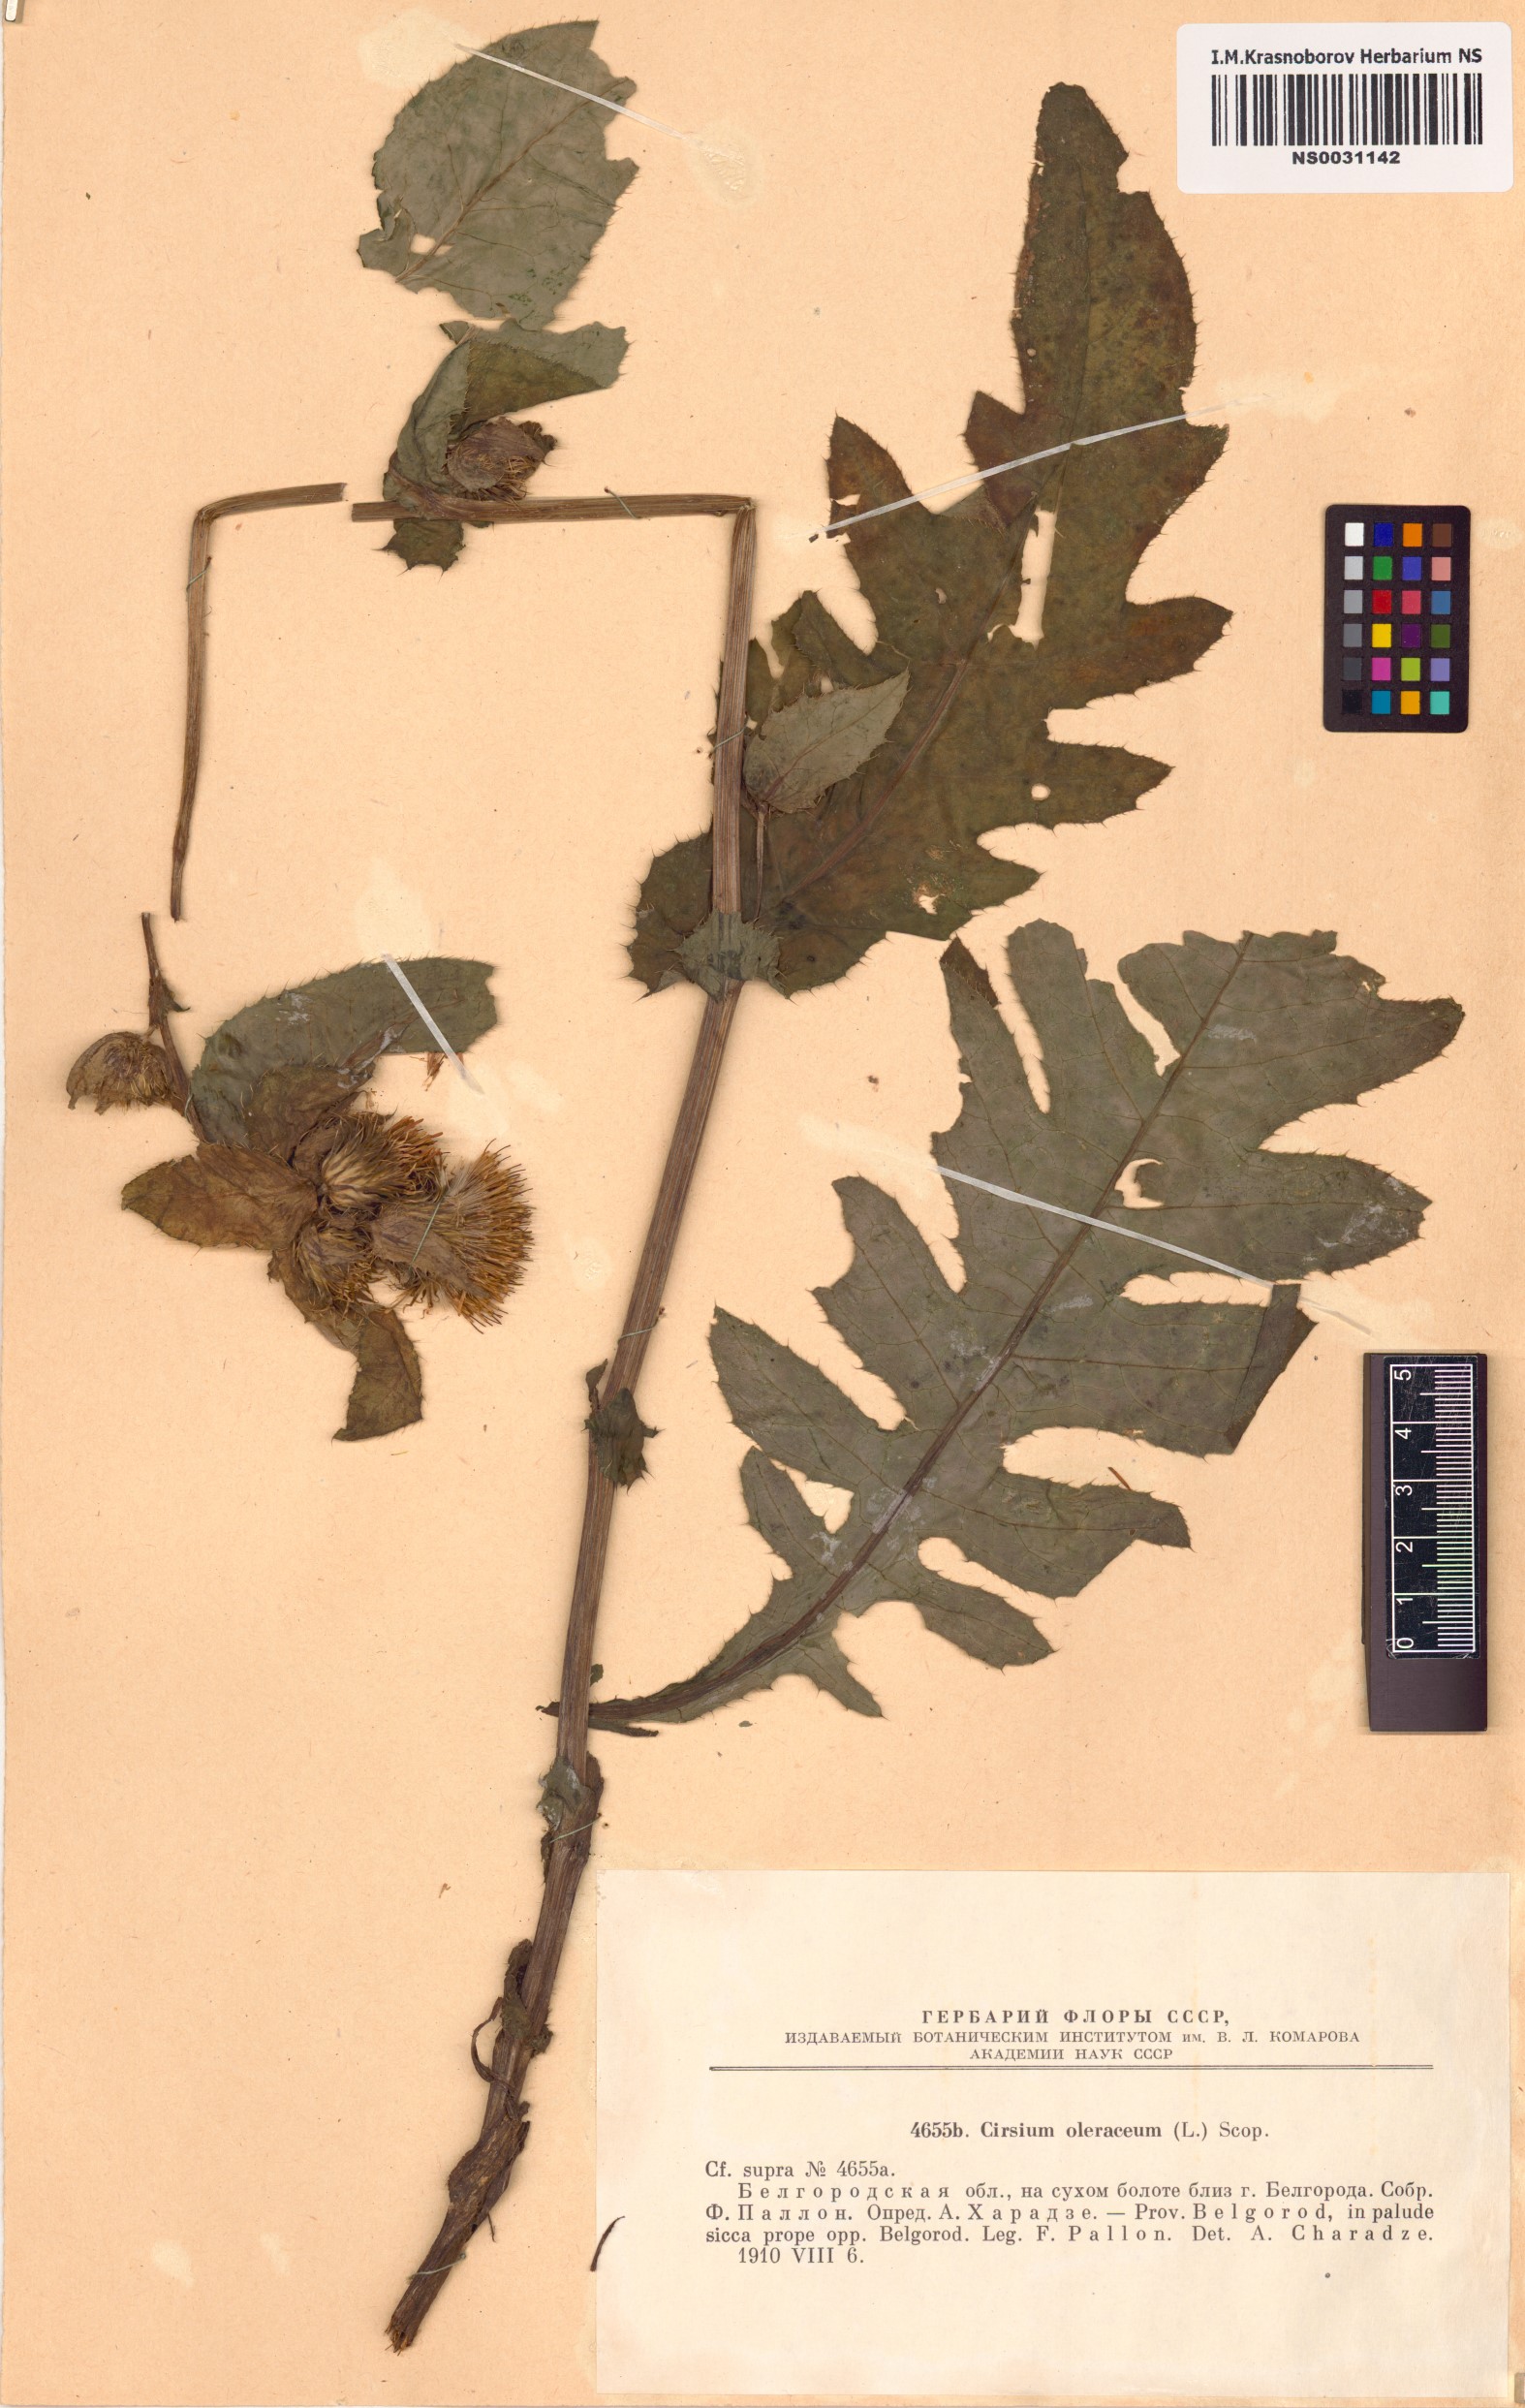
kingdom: Plantae
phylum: Tracheophyta
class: Magnoliopsida
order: Asterales
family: Asteraceae
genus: Cirsium
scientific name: Cirsium oleraceum
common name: Cabbage thistle
